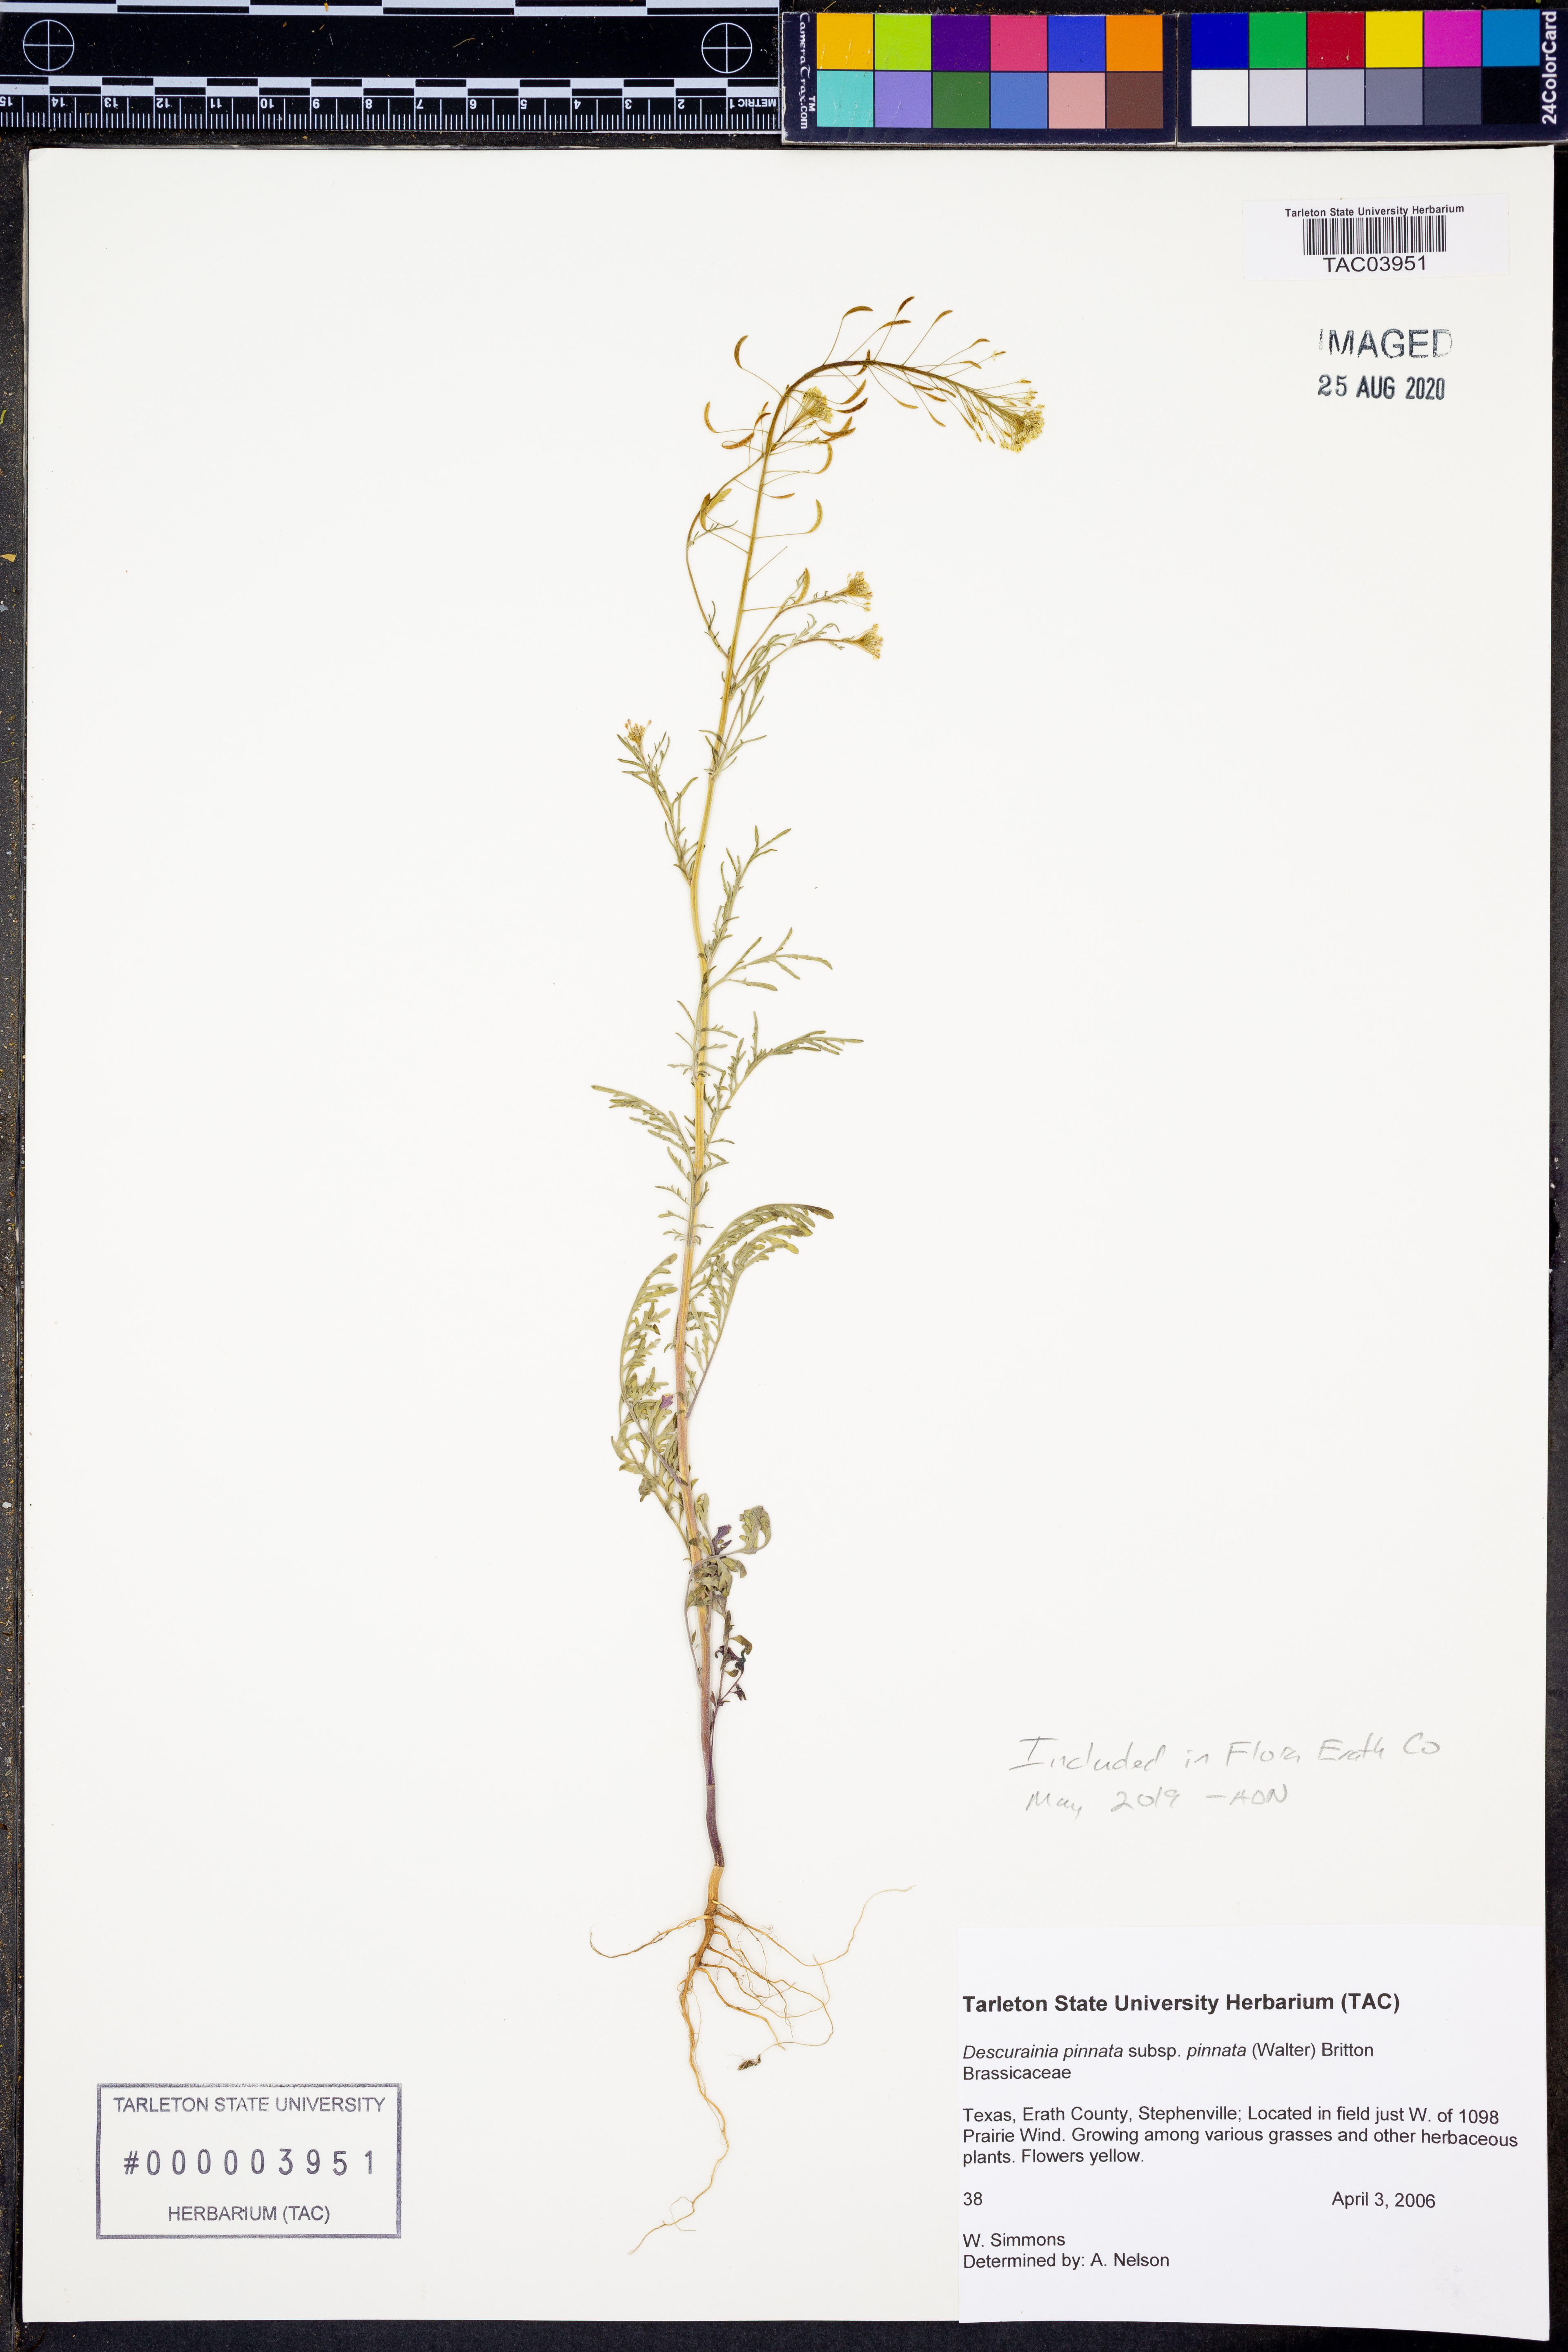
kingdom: Plantae
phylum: Tracheophyta
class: Magnoliopsida
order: Brassicales
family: Brassicaceae
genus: Descurainia
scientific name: Descurainia pinnata
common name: Western tansy mustard
